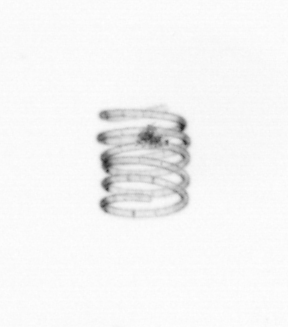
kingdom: Chromista
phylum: Ochrophyta
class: Bacillariophyceae
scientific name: Bacillariophyceae
